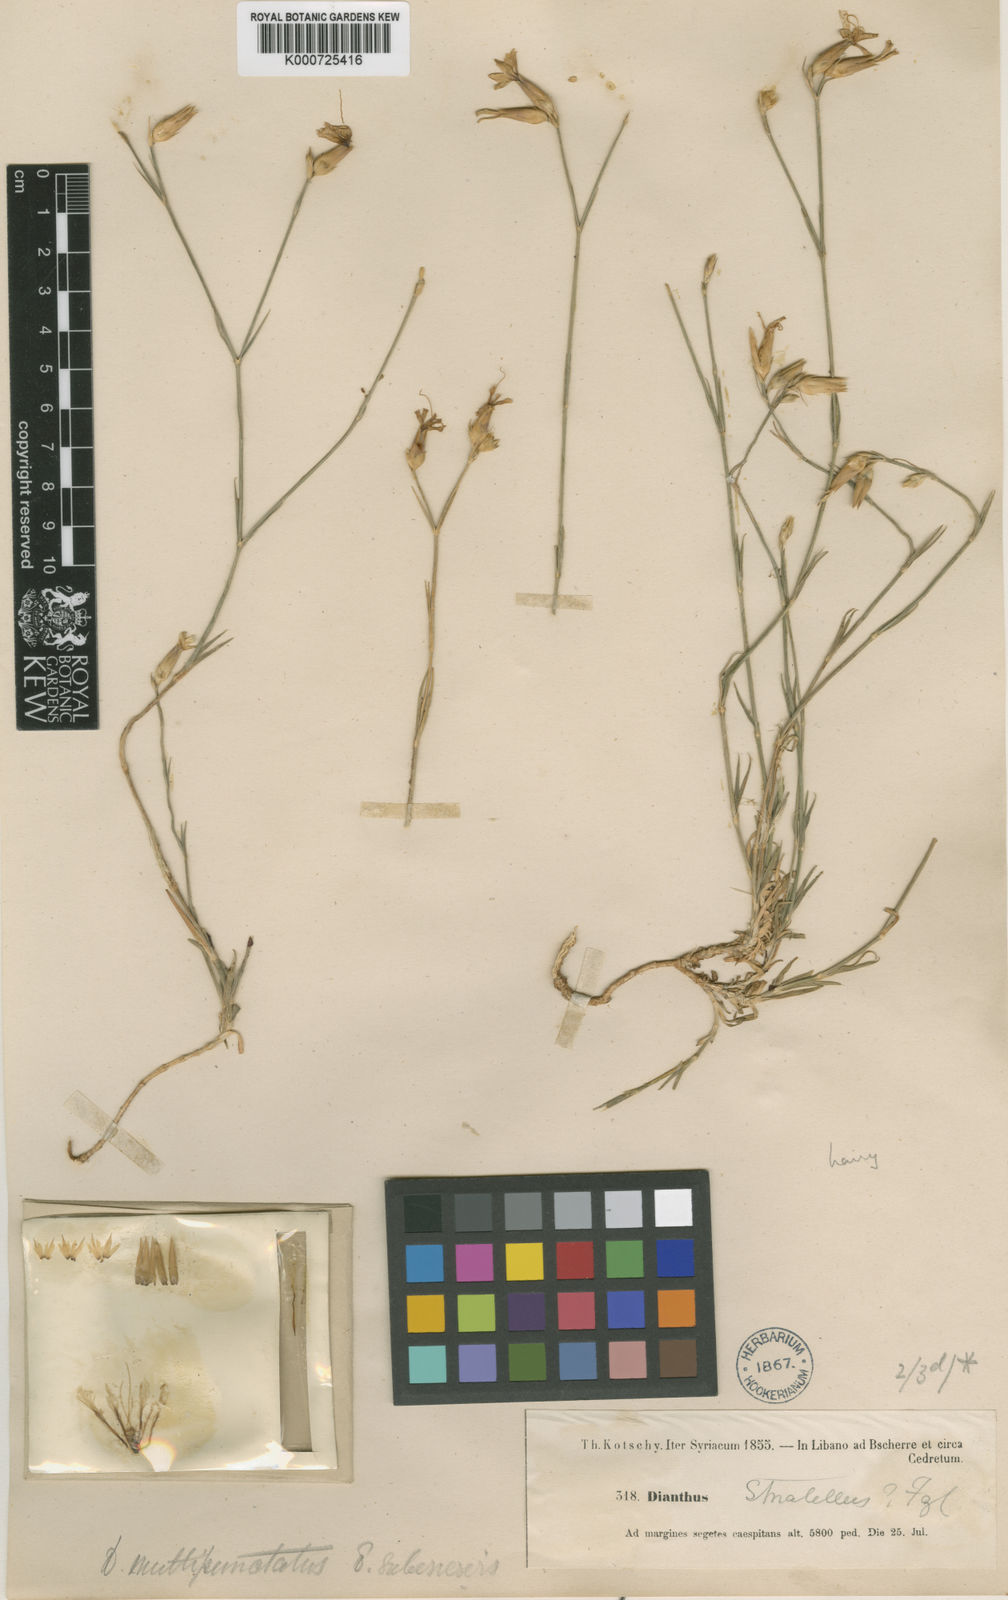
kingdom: Plantae
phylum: Tracheophyta
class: Magnoliopsida
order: Caryophyllales
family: Caryophyllaceae
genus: Dianthus
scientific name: Dianthus strictus
